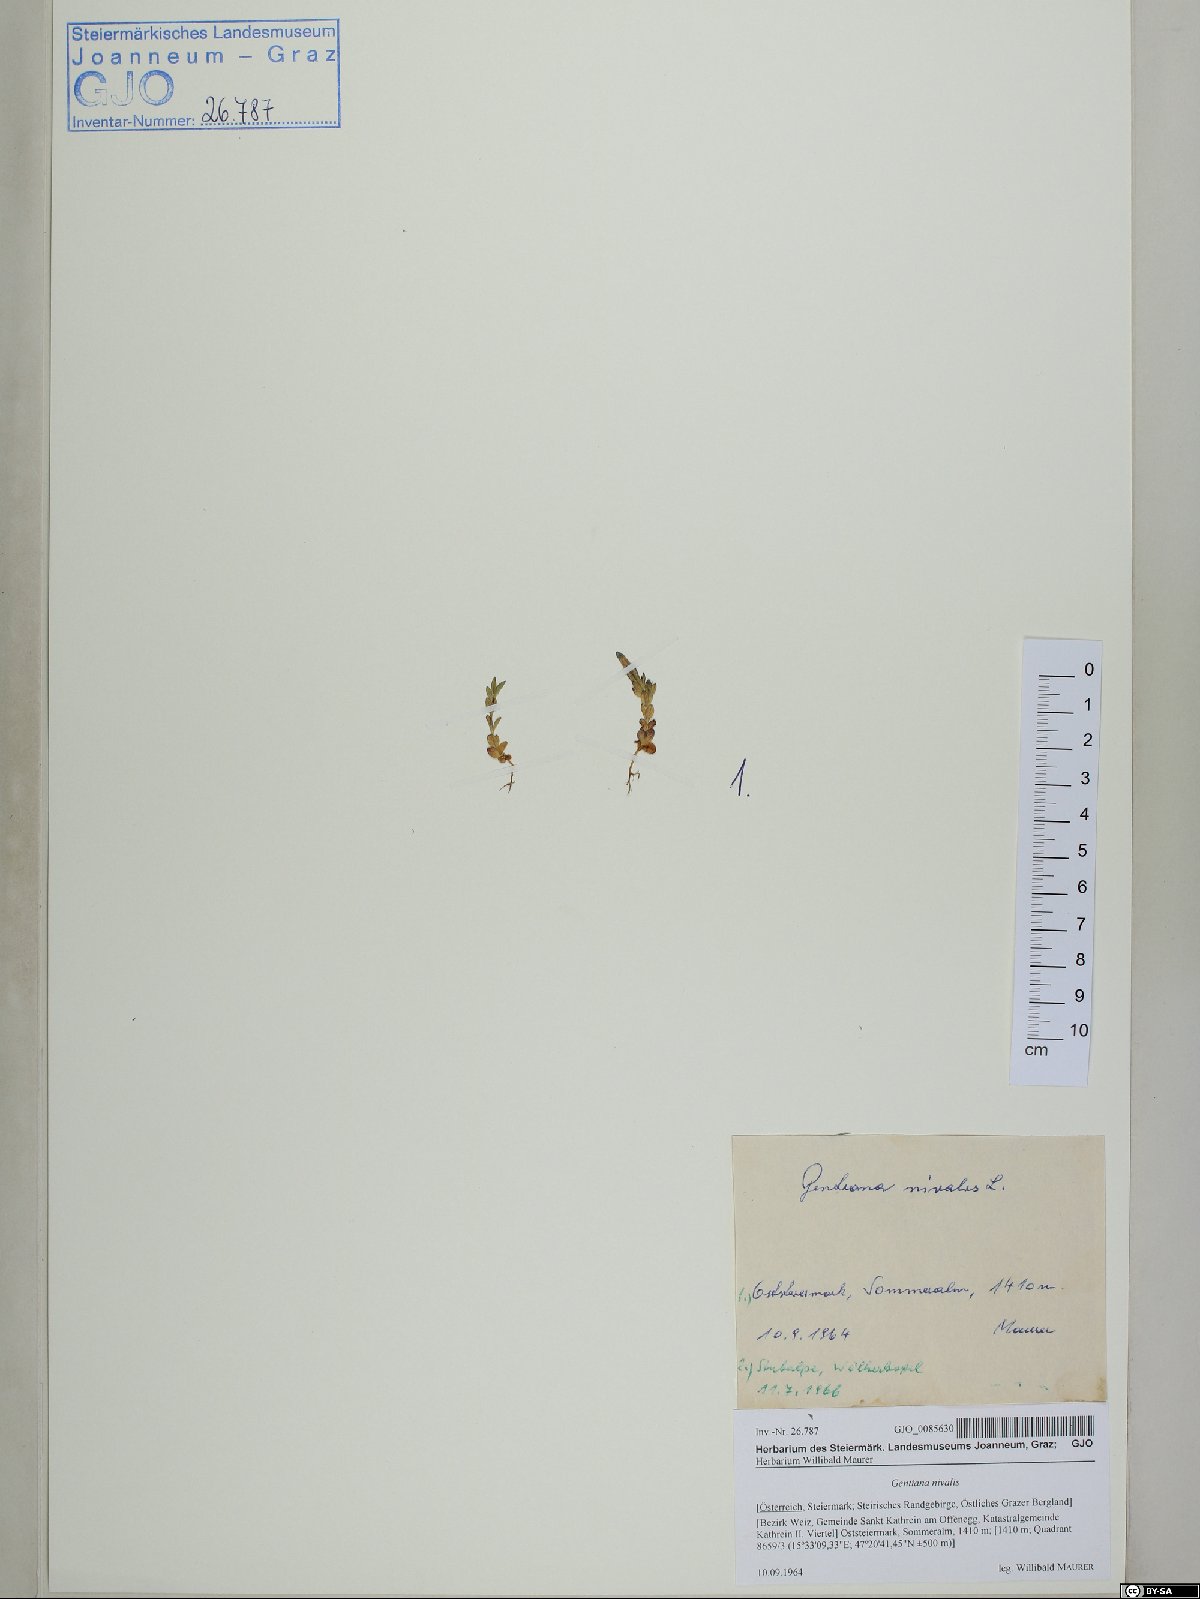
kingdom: Plantae
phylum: Tracheophyta
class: Magnoliopsida
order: Gentianales
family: Gentianaceae
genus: Gentiana
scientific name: Gentiana nivalis
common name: Alpine gentian
